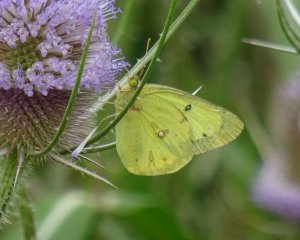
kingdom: Animalia
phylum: Arthropoda
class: Insecta
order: Lepidoptera
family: Pieridae
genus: Colias
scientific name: Colias philodice
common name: Clouded Sulphur
